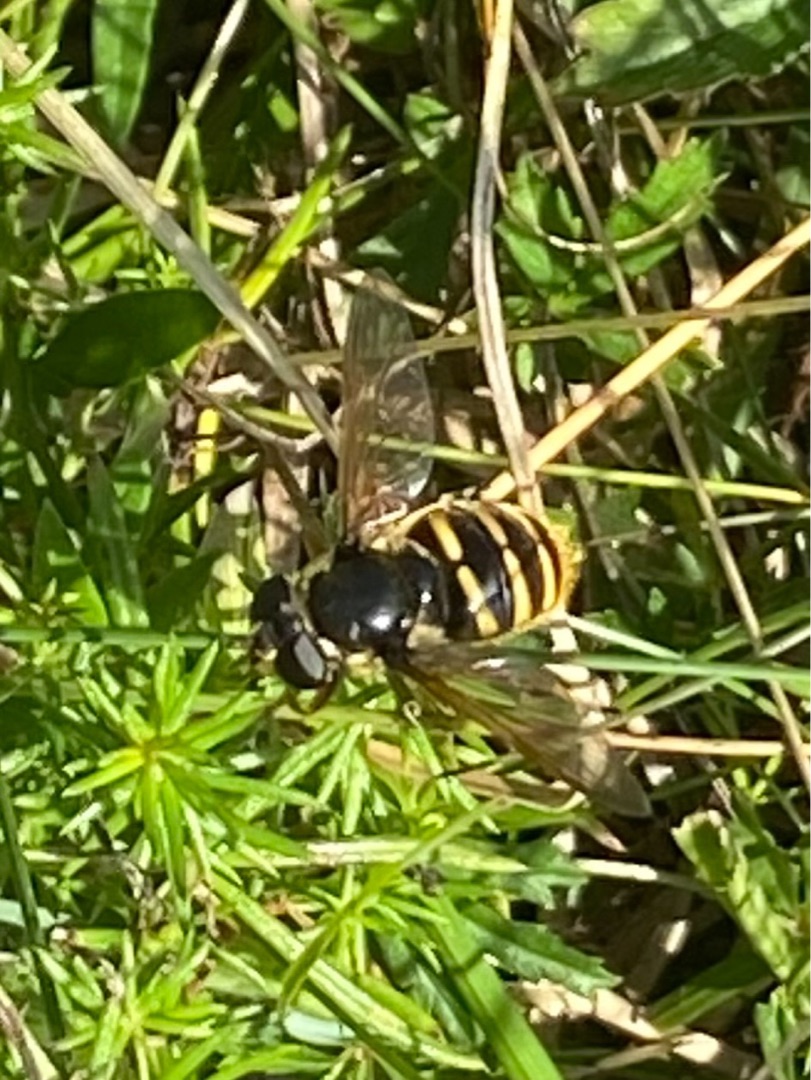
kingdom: Animalia
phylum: Arthropoda
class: Insecta
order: Diptera
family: Syrphidae
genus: Sericomyia
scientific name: Sericomyia silentis
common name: Tørve-silkesvirreflue
